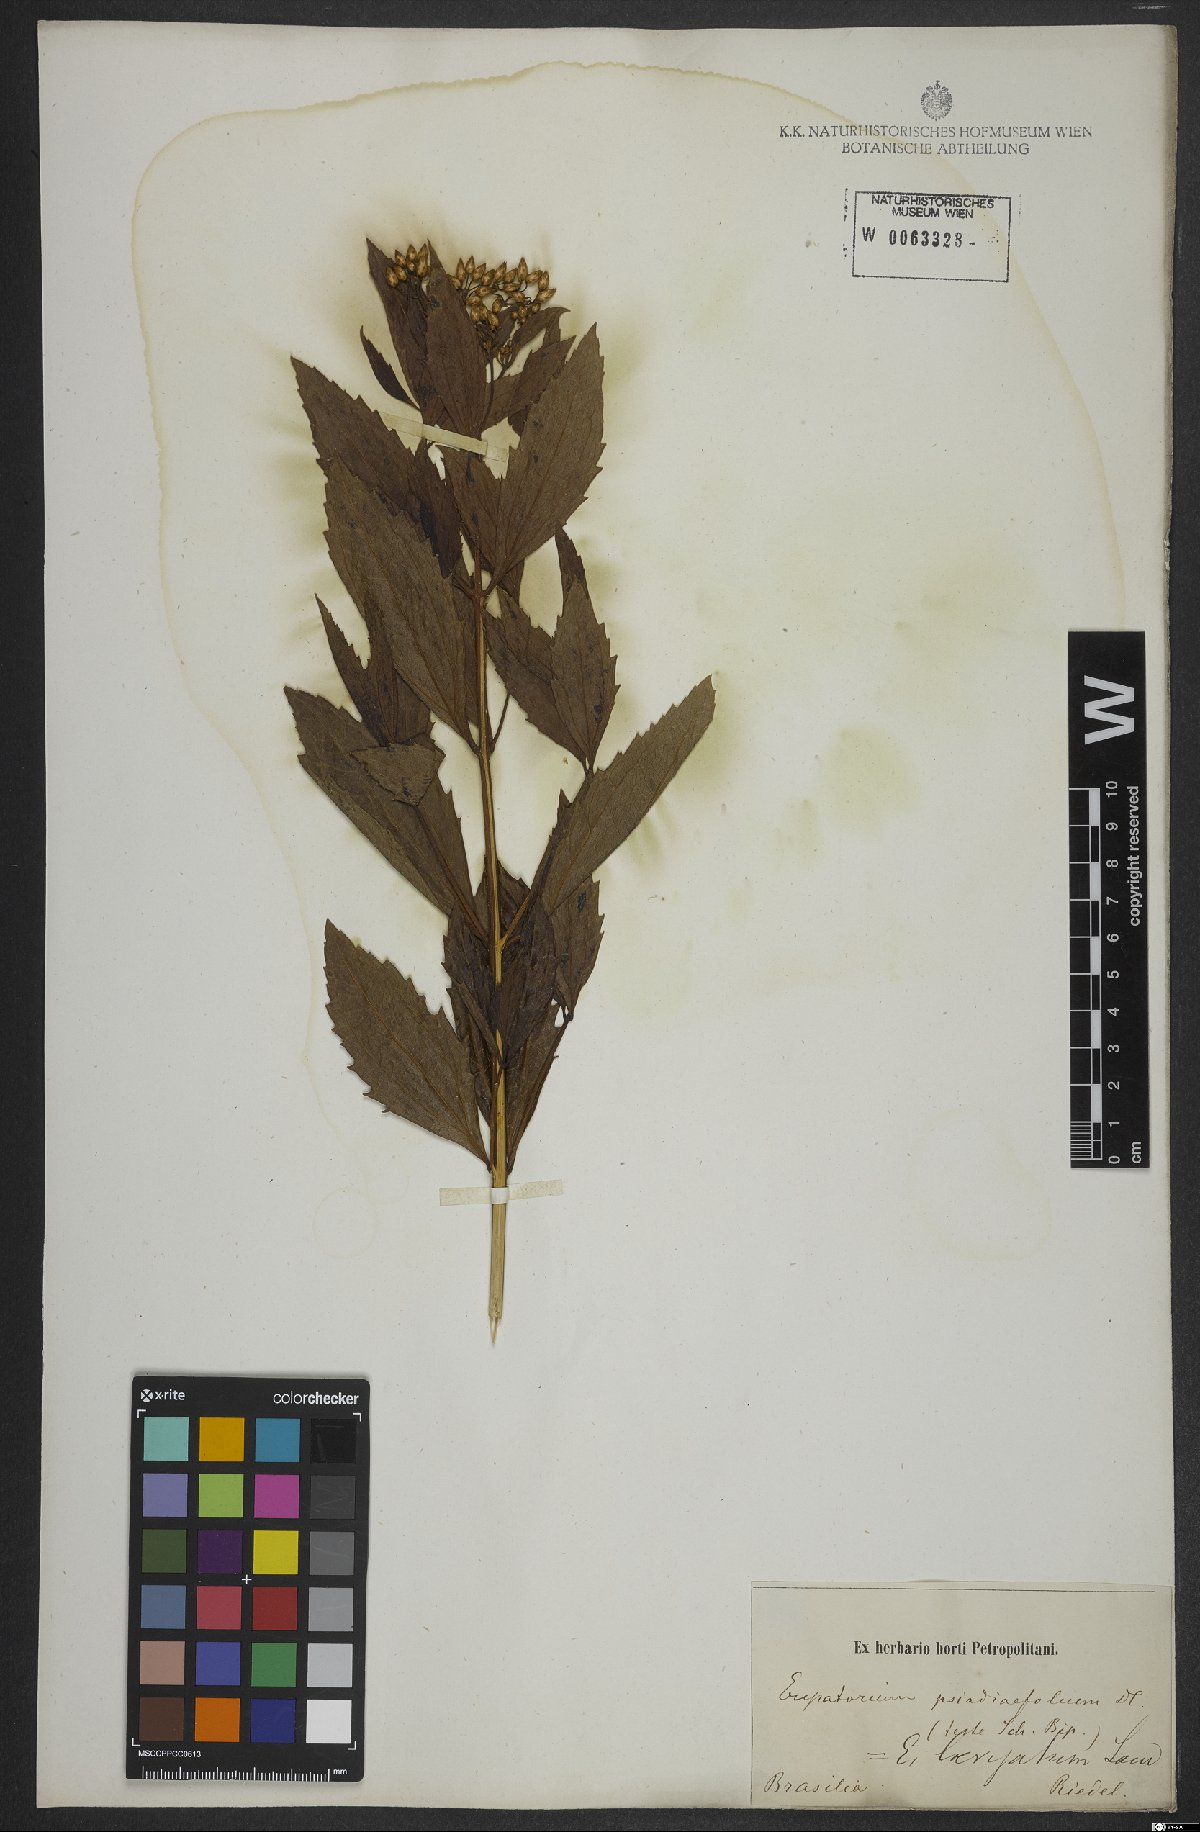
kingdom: Plantae
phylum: Tracheophyta
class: Magnoliopsida
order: Asterales
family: Asteraceae
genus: Eupatorium
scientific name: Eupatorium laevigatum
